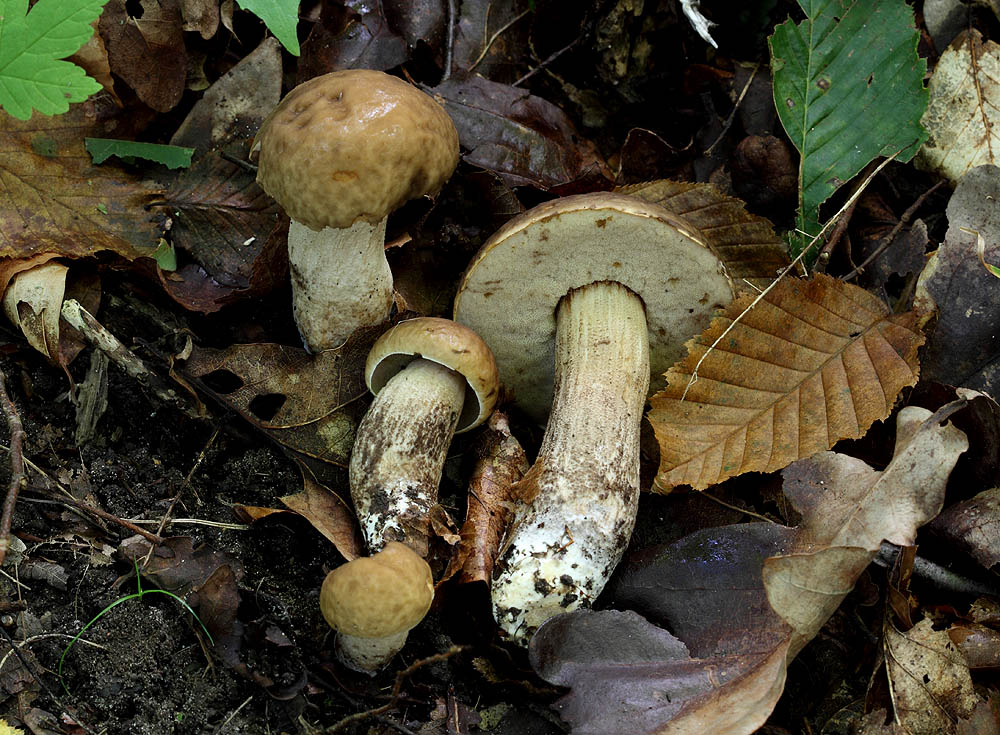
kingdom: Fungi
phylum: Basidiomycota
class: Agaricomycetes
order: Boletales
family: Boletaceae
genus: Leccinellum
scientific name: Leccinellum pseudoscabrum
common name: avnbøg-skælrørhat
